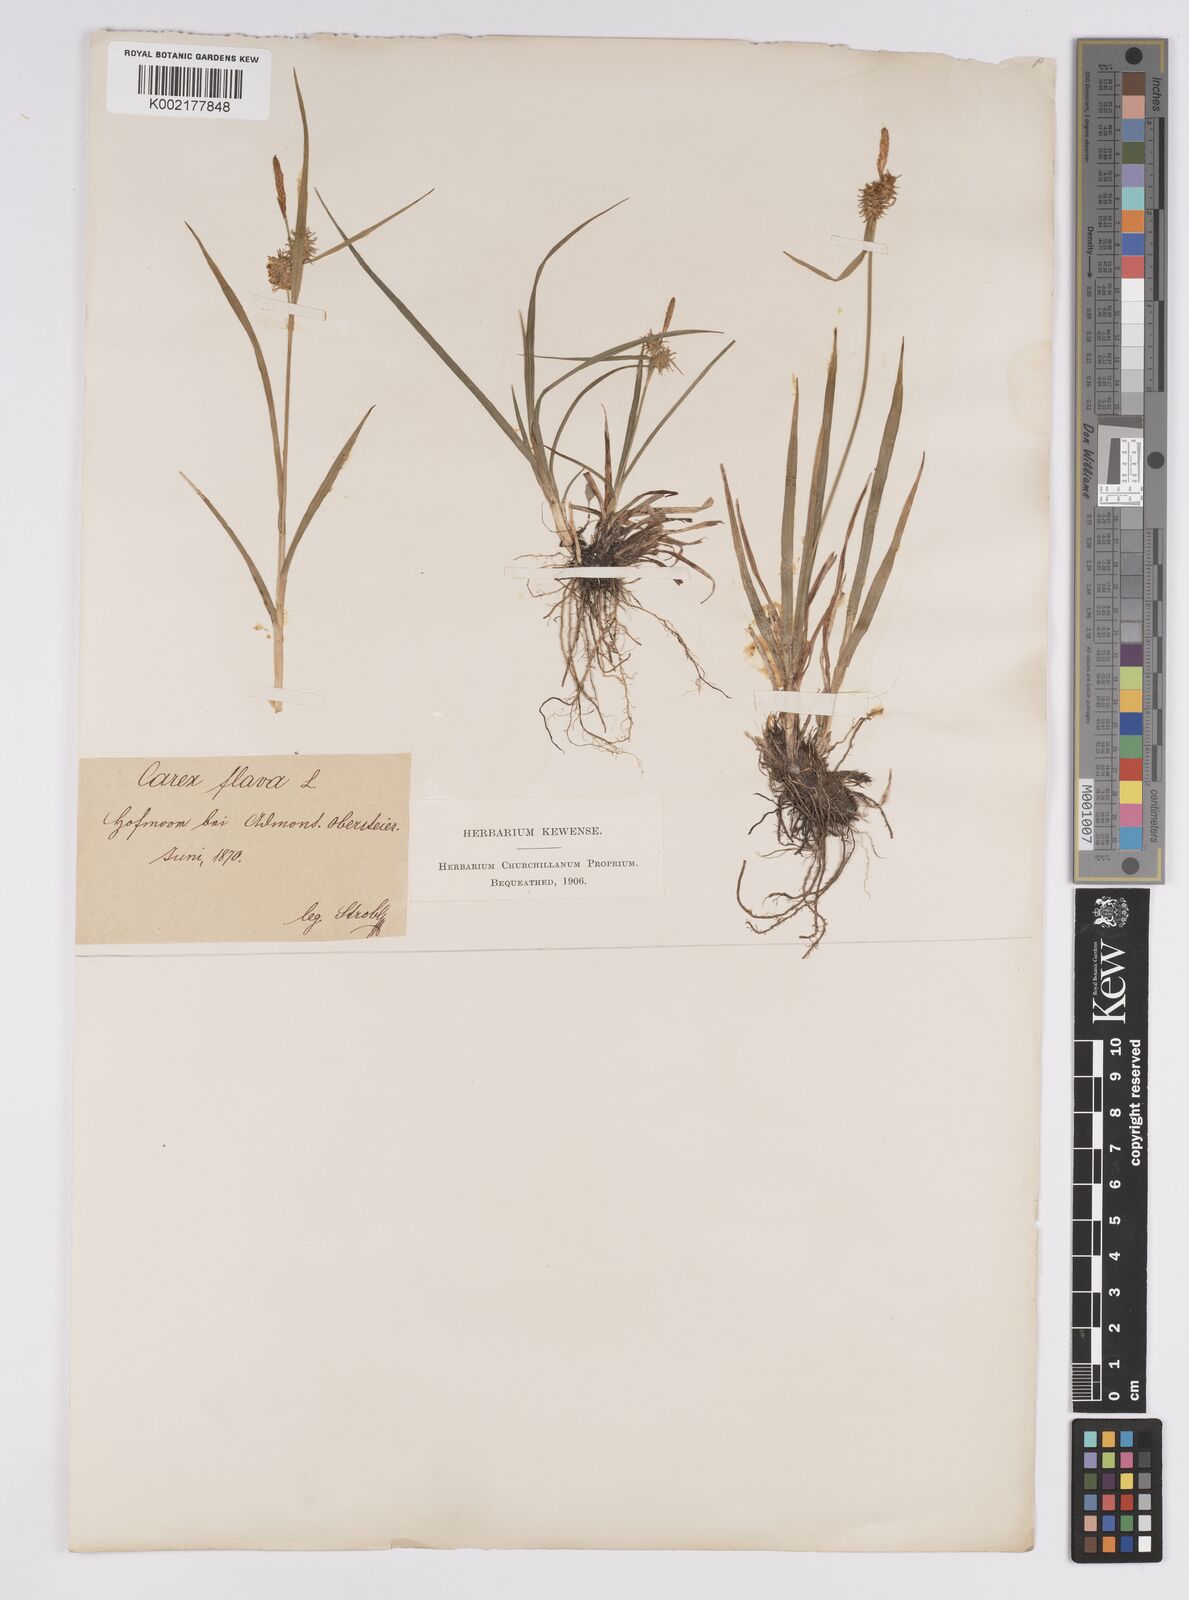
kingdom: Plantae
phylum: Tracheophyta
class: Liliopsida
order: Poales
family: Cyperaceae
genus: Carex
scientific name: Carex flava
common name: Large yellow-sedge
